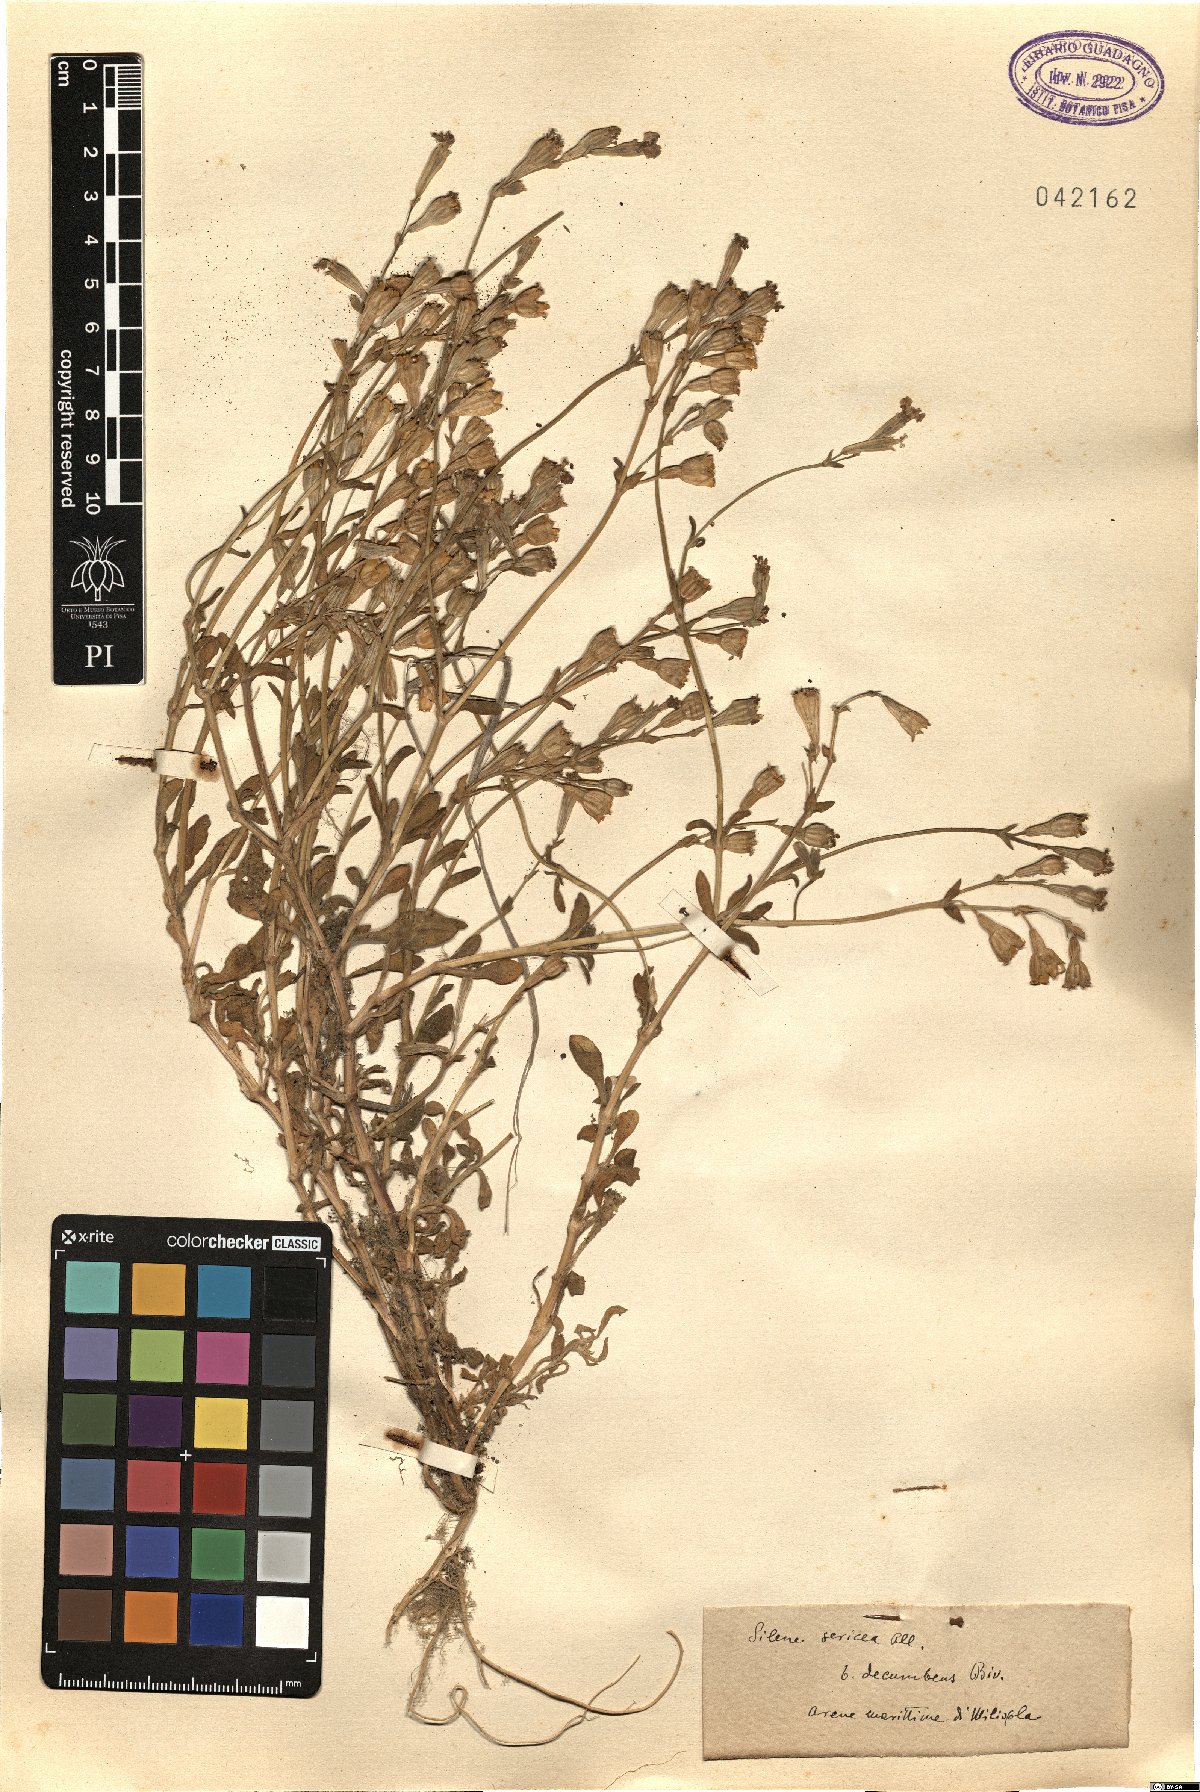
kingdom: Plantae
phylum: Tracheophyta
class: Magnoliopsida
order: Caryophyllales
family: Caryophyllaceae
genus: Silene
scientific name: Silene sericea
